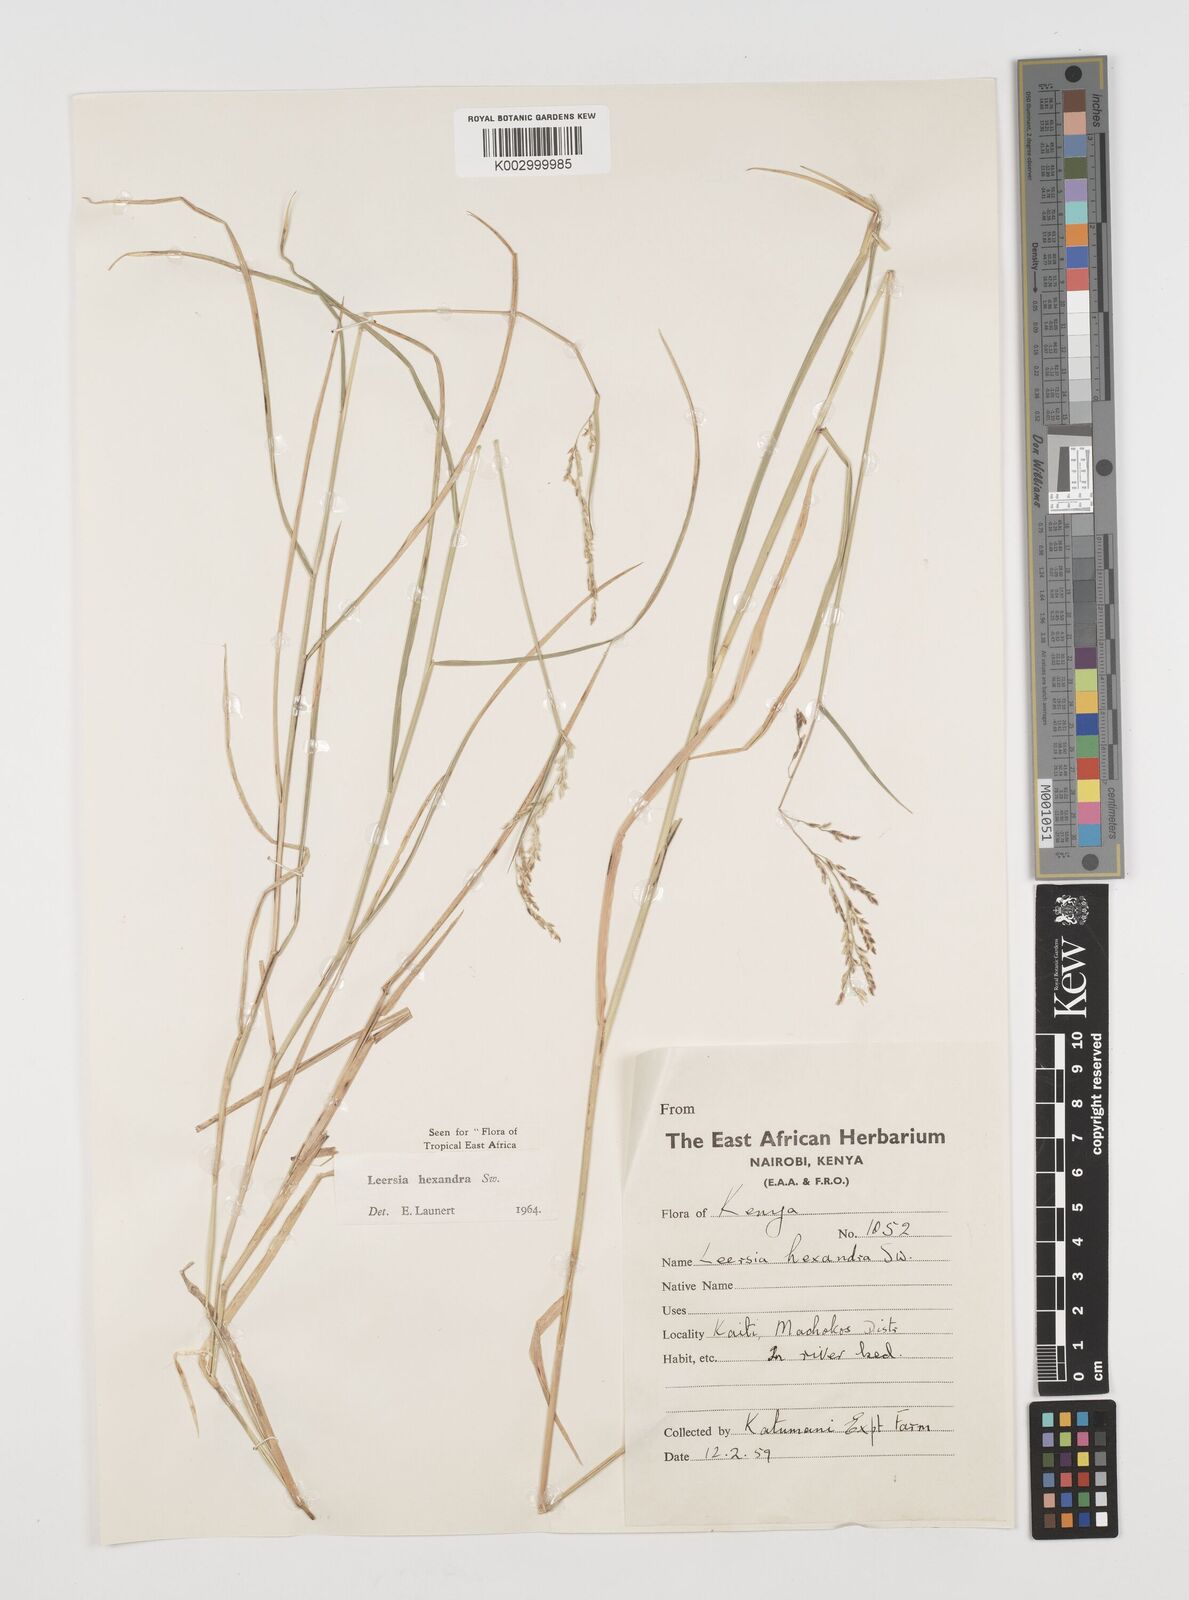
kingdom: Plantae
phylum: Tracheophyta
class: Liliopsida
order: Poales
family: Poaceae
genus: Leersia
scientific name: Leersia hexandra
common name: Southern cut grass
